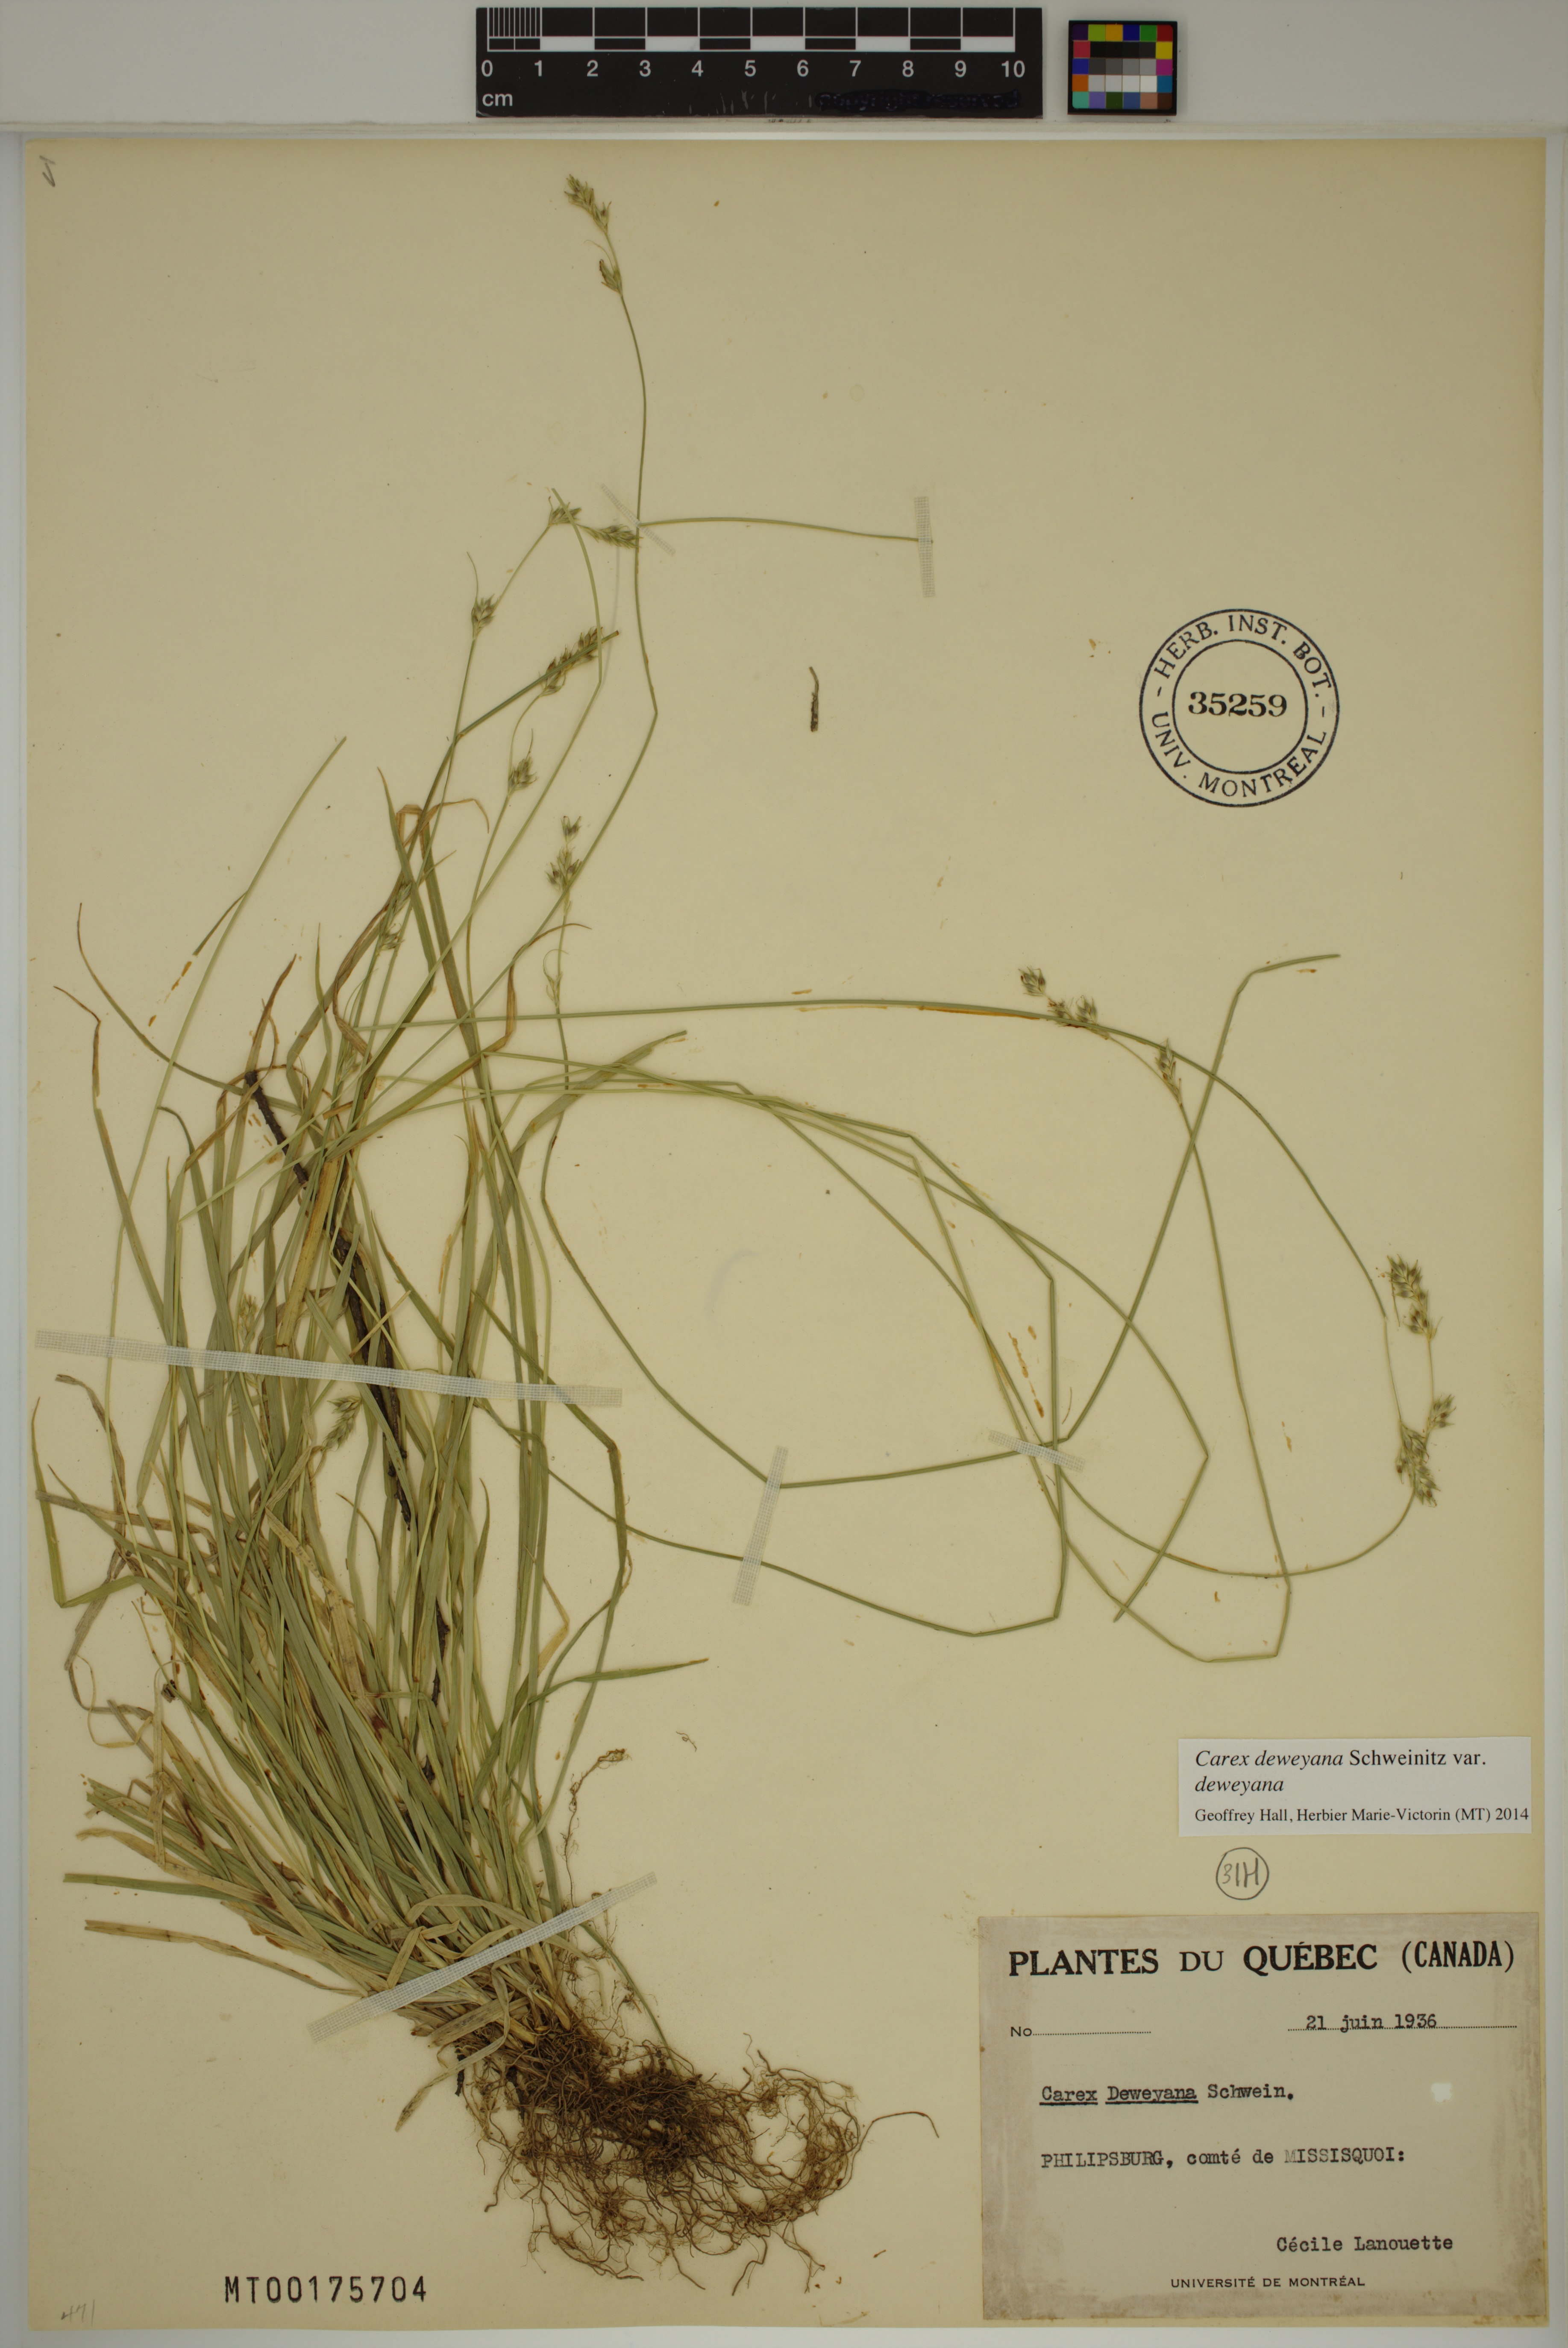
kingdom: Plantae
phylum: Tracheophyta
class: Liliopsida
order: Poales
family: Cyperaceae
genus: Carex
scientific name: Carex deweyana
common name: Dewey's sedge
